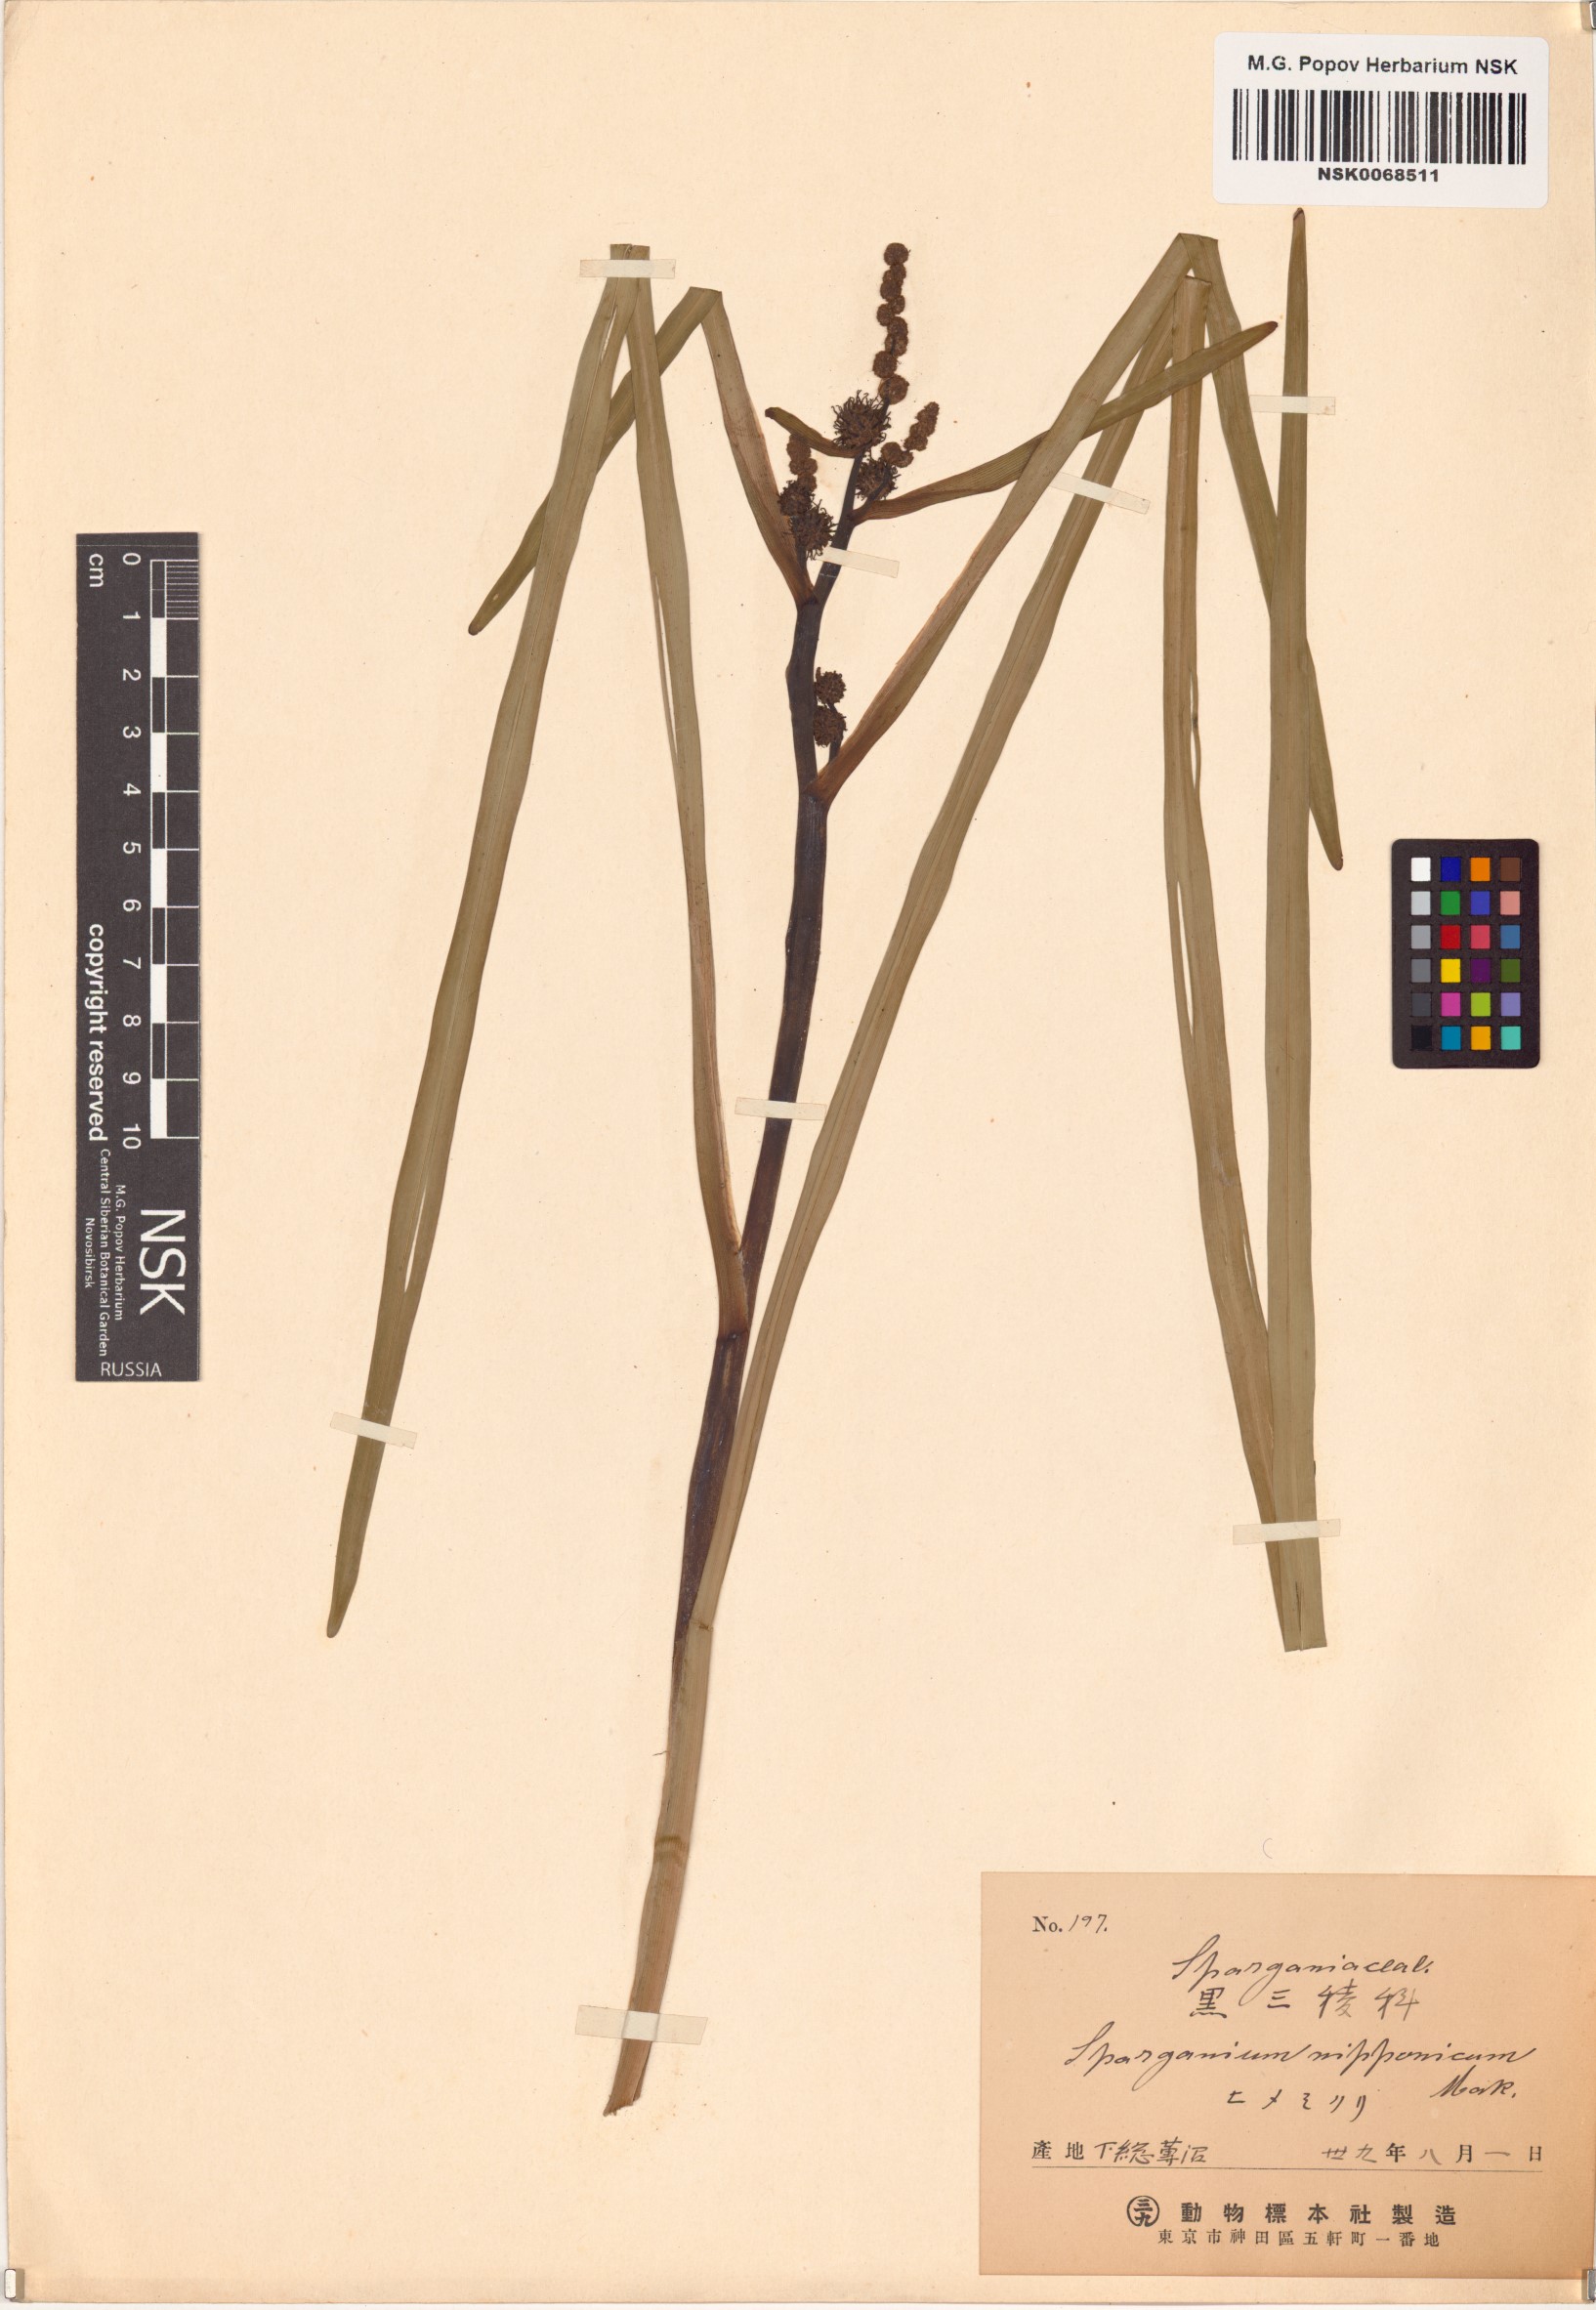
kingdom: Plantae
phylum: Tracheophyta
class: Liliopsida
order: Poales
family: Typhaceae
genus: Sparganium
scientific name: Sparganium subglobosum
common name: Burr­-reed
